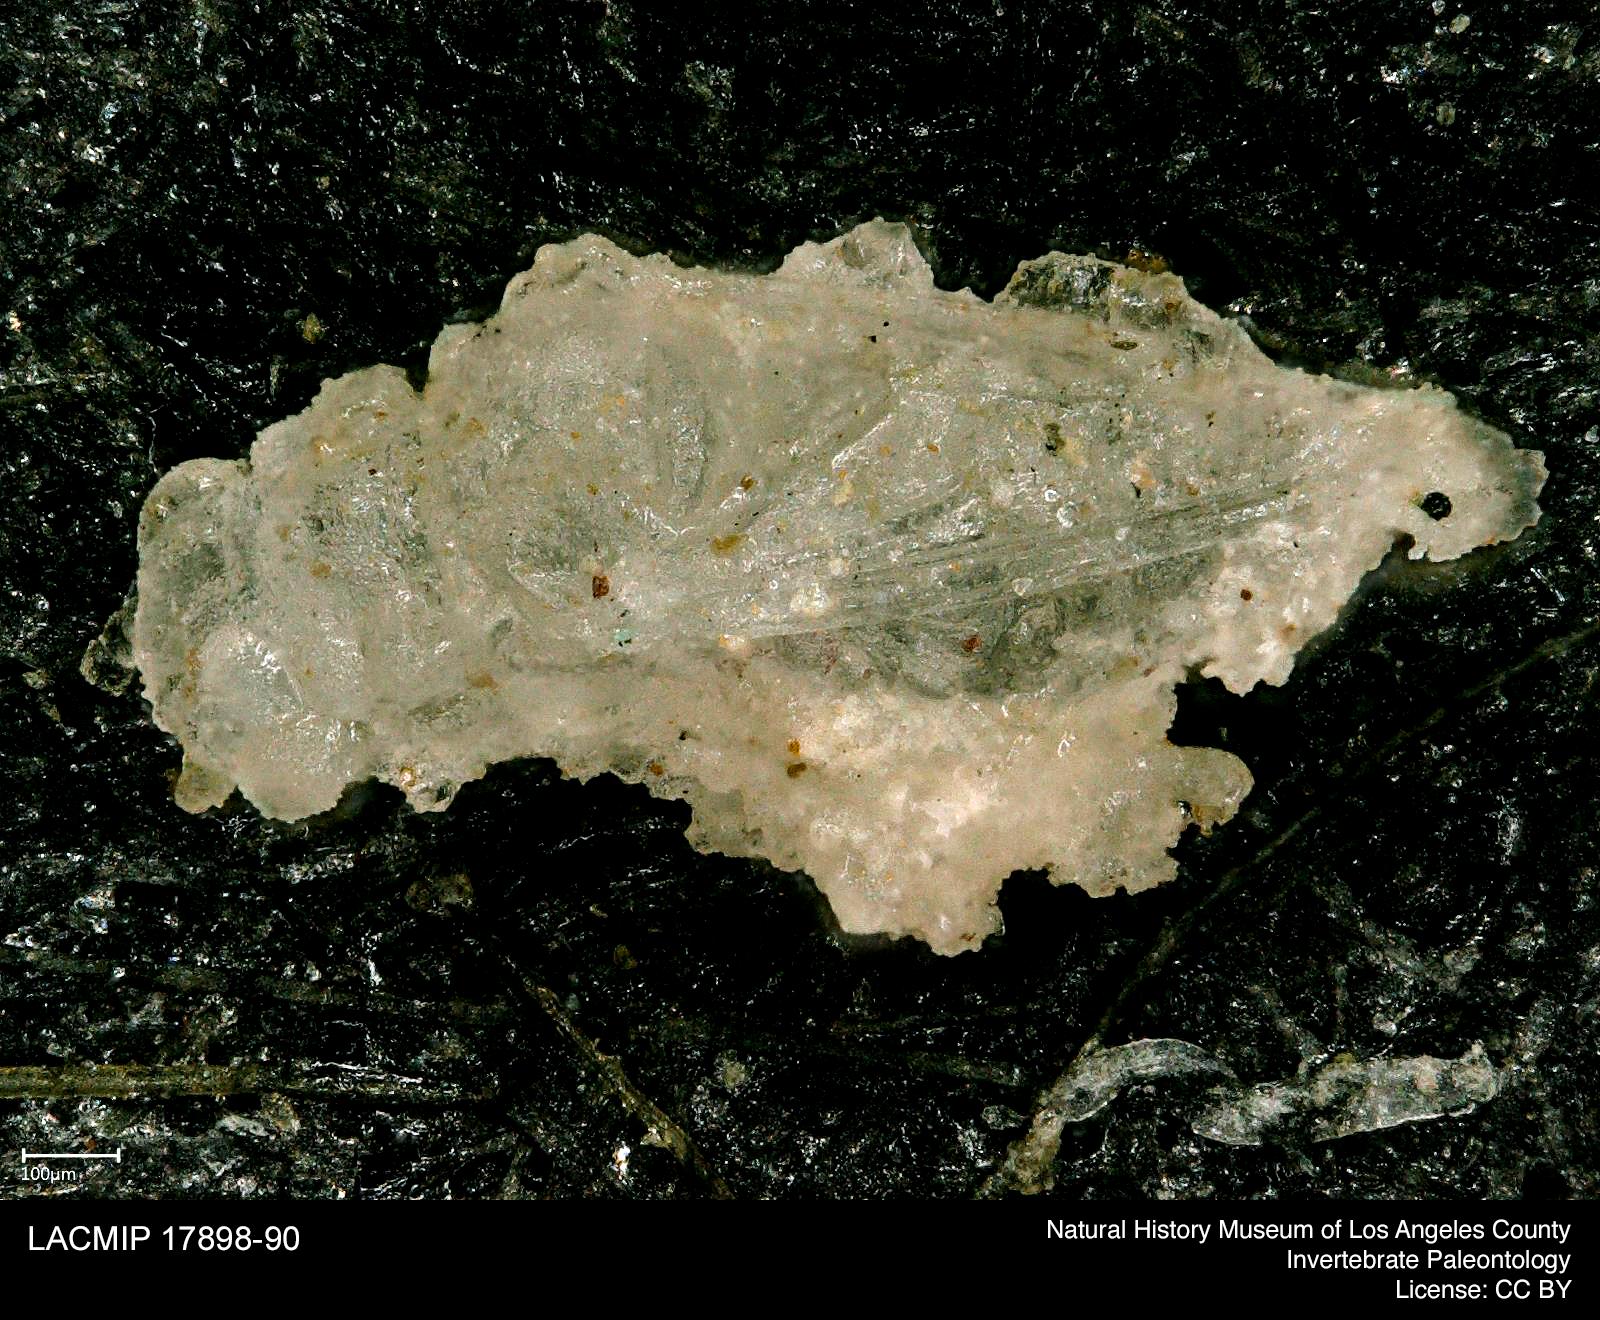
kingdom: Animalia
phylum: Arthropoda
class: Insecta
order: Hemiptera
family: Psyllidae
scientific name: Psyllidae
